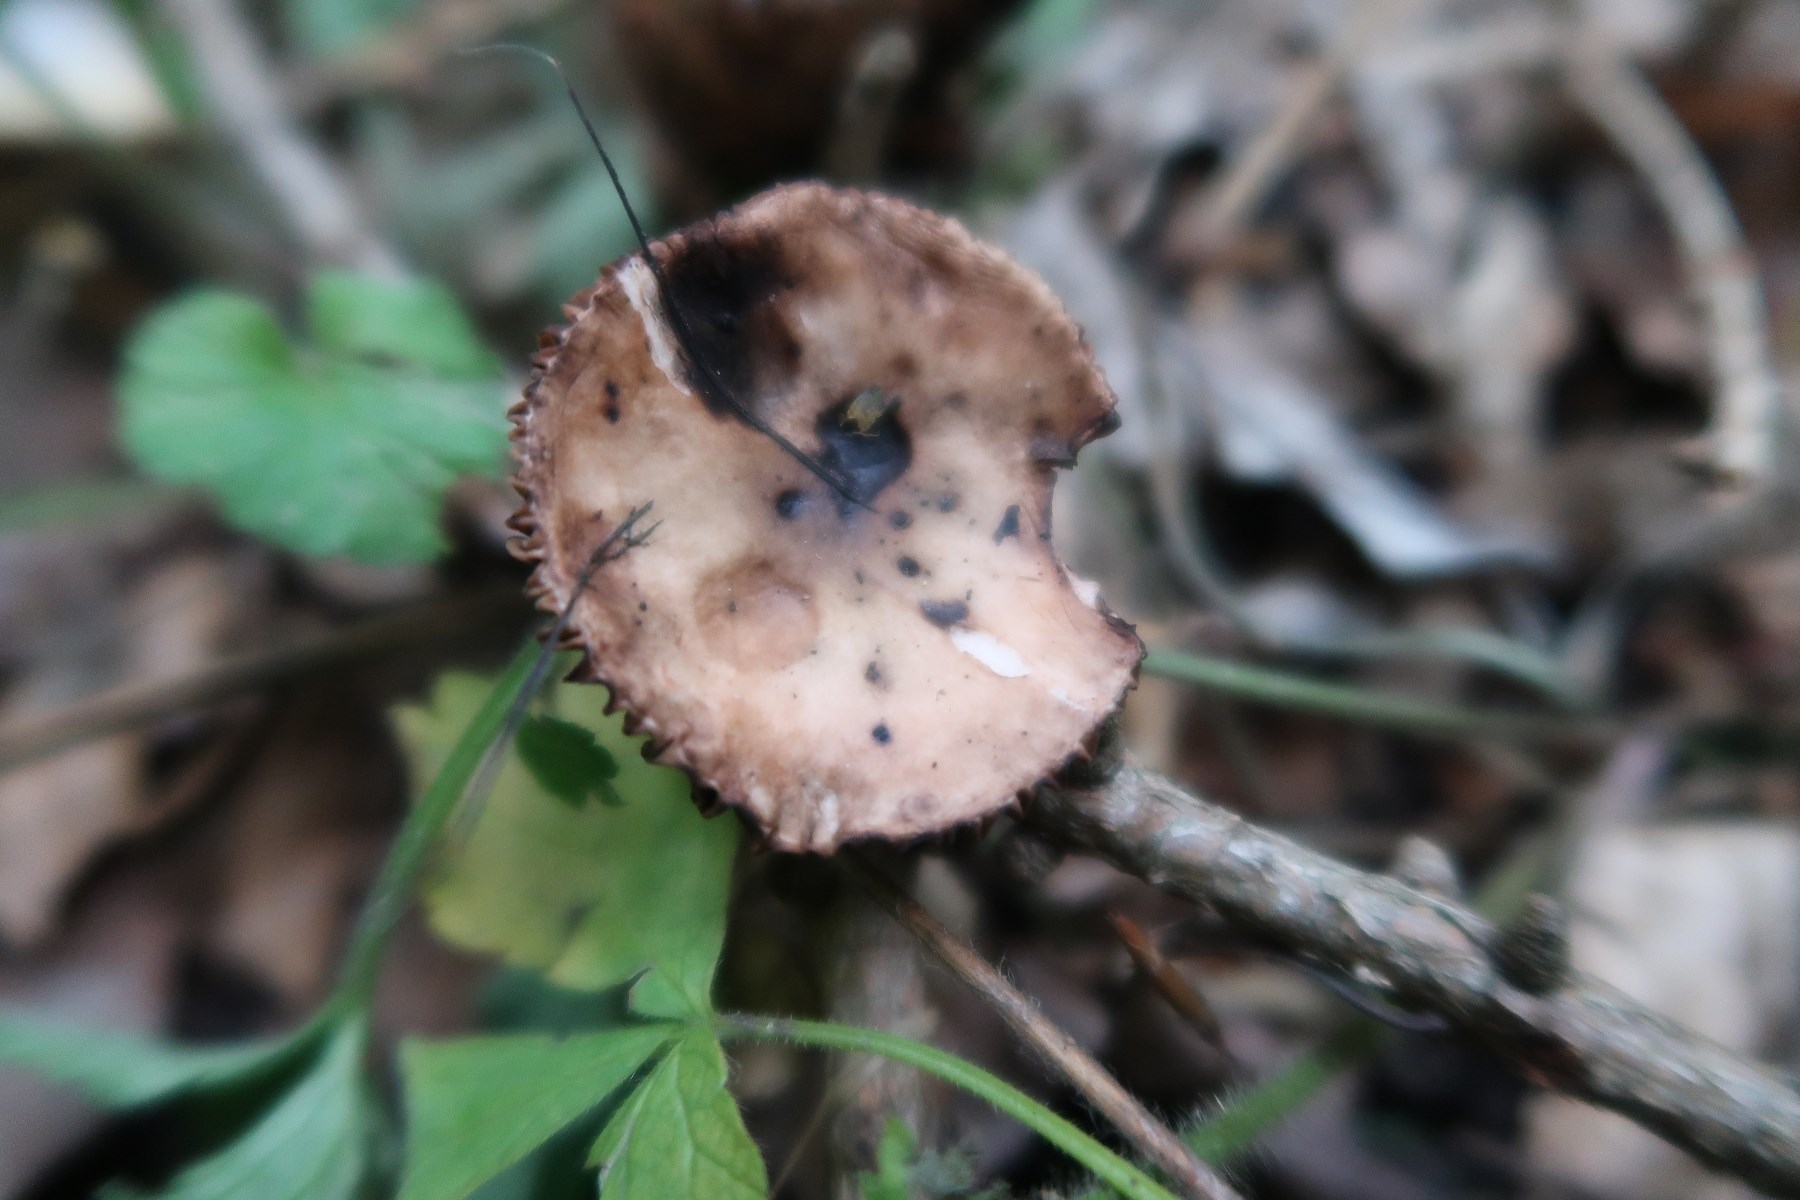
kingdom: Fungi
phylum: Basidiomycota
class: Agaricomycetes
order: Boletales
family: Gomphidiaceae
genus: Gomphidius
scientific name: Gomphidius maculatus
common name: rødmende slimslør
